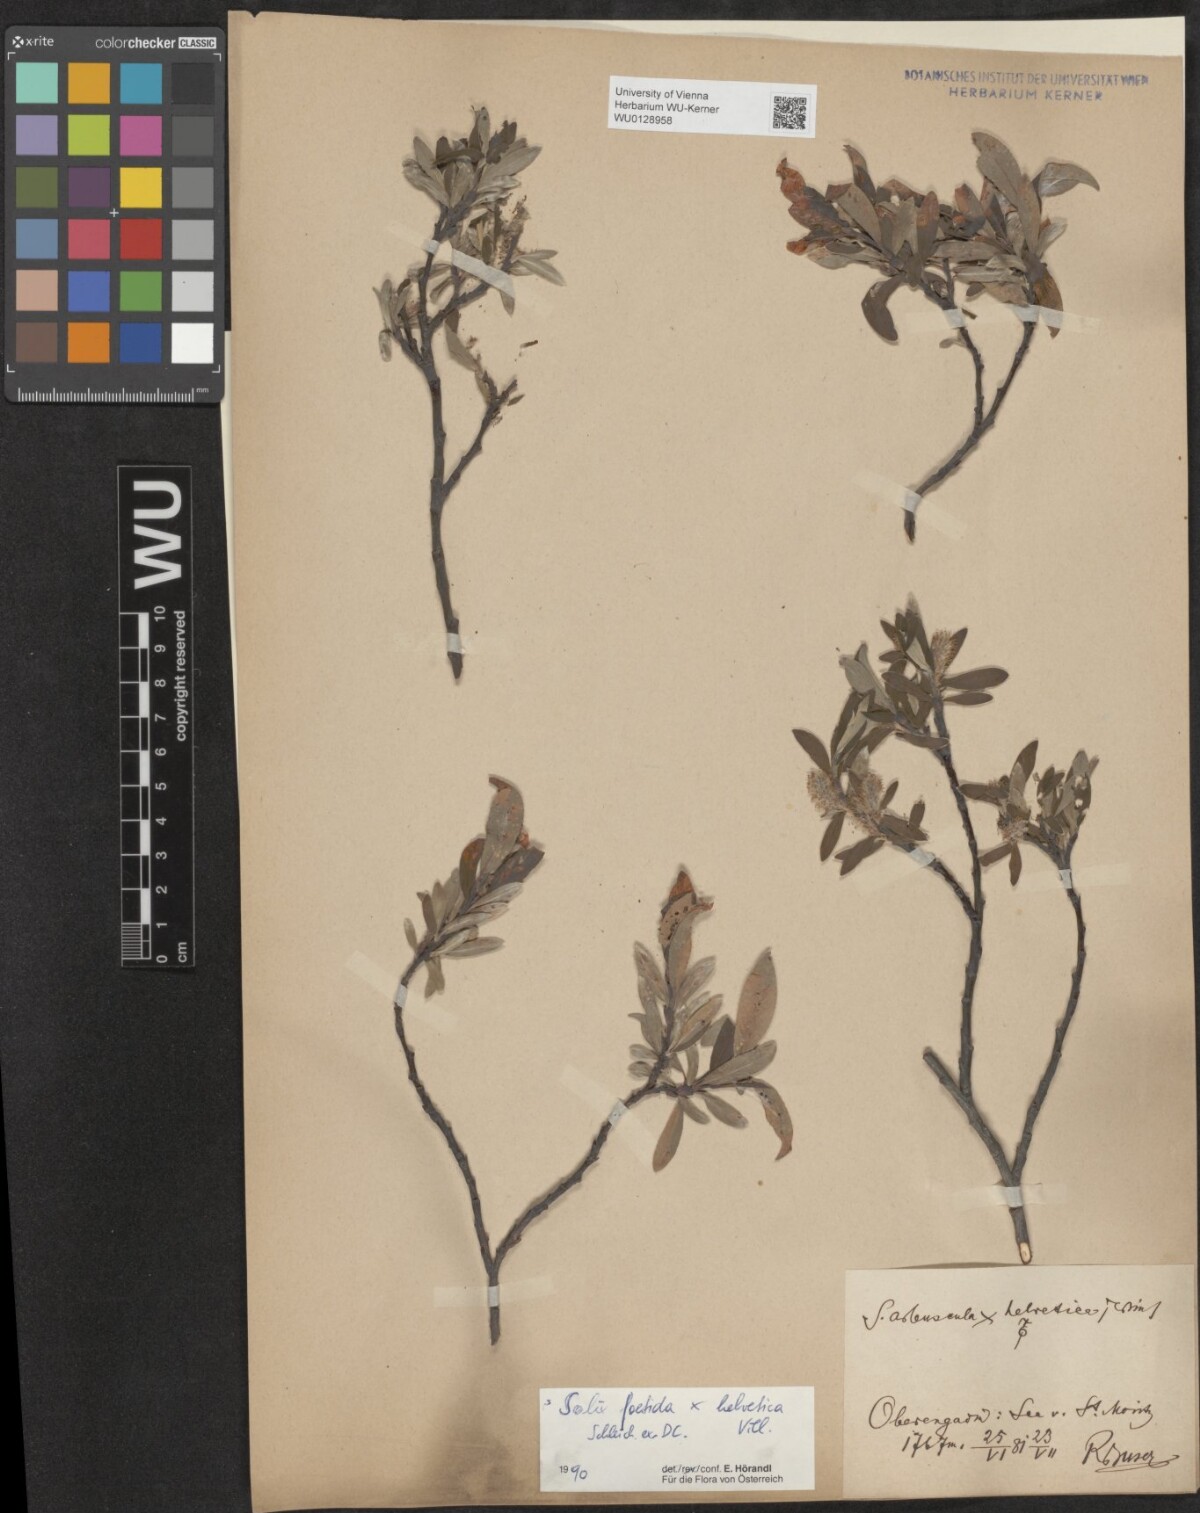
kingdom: Plantae
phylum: Tracheophyta
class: Magnoliopsida
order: Malpighiales
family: Salicaceae
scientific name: Salicaceae
